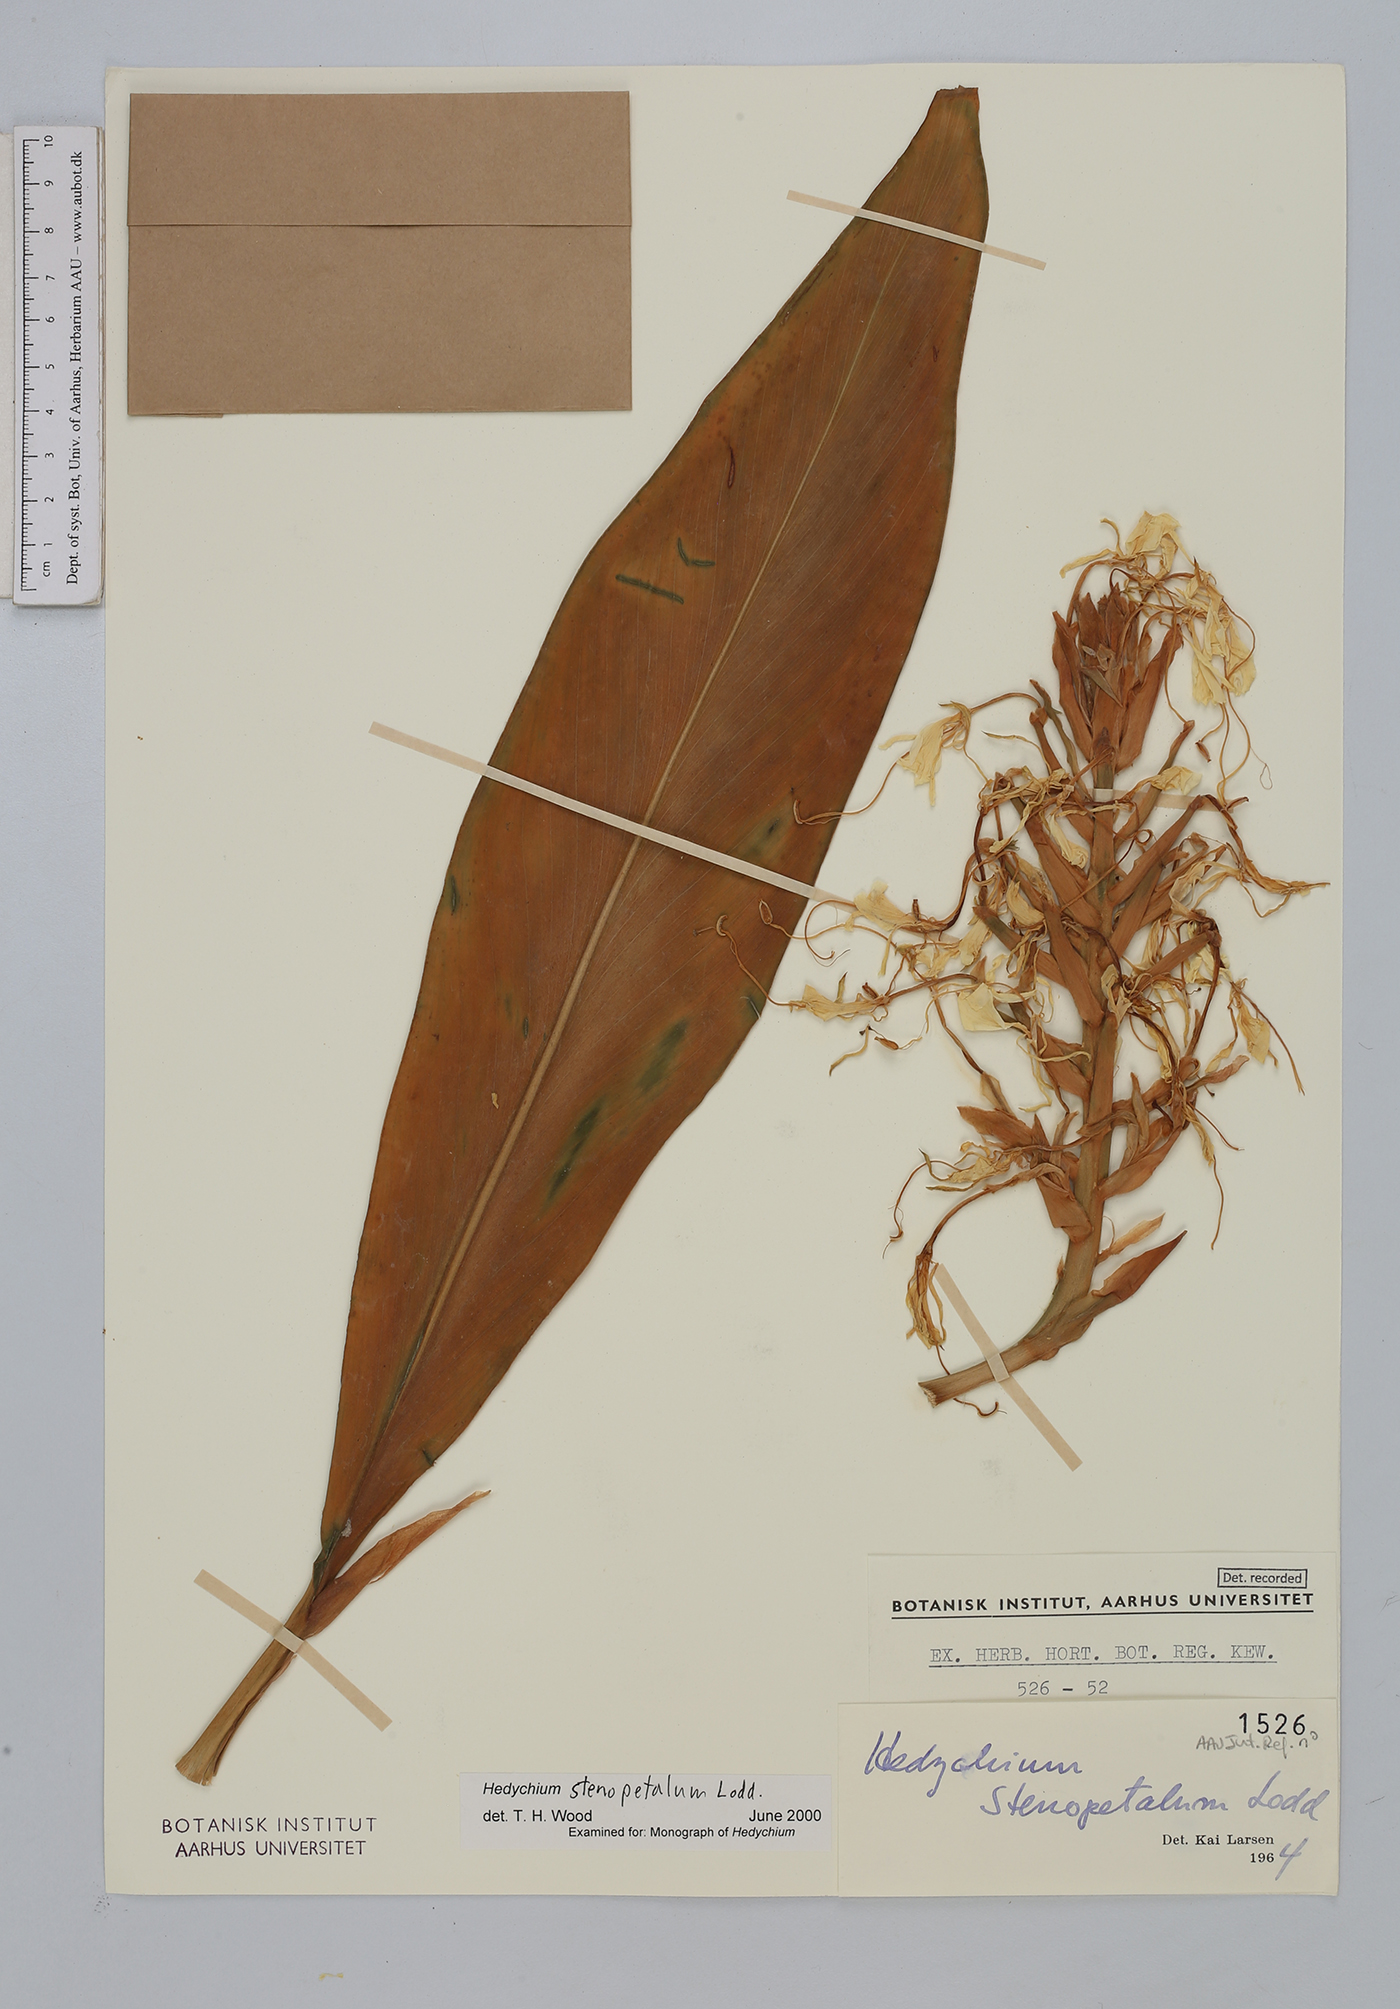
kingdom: Plantae
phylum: Tracheophyta
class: Liliopsida
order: Zingiberales
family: Zingiberaceae
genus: Hedychium
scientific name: Hedychium stenopetalum
